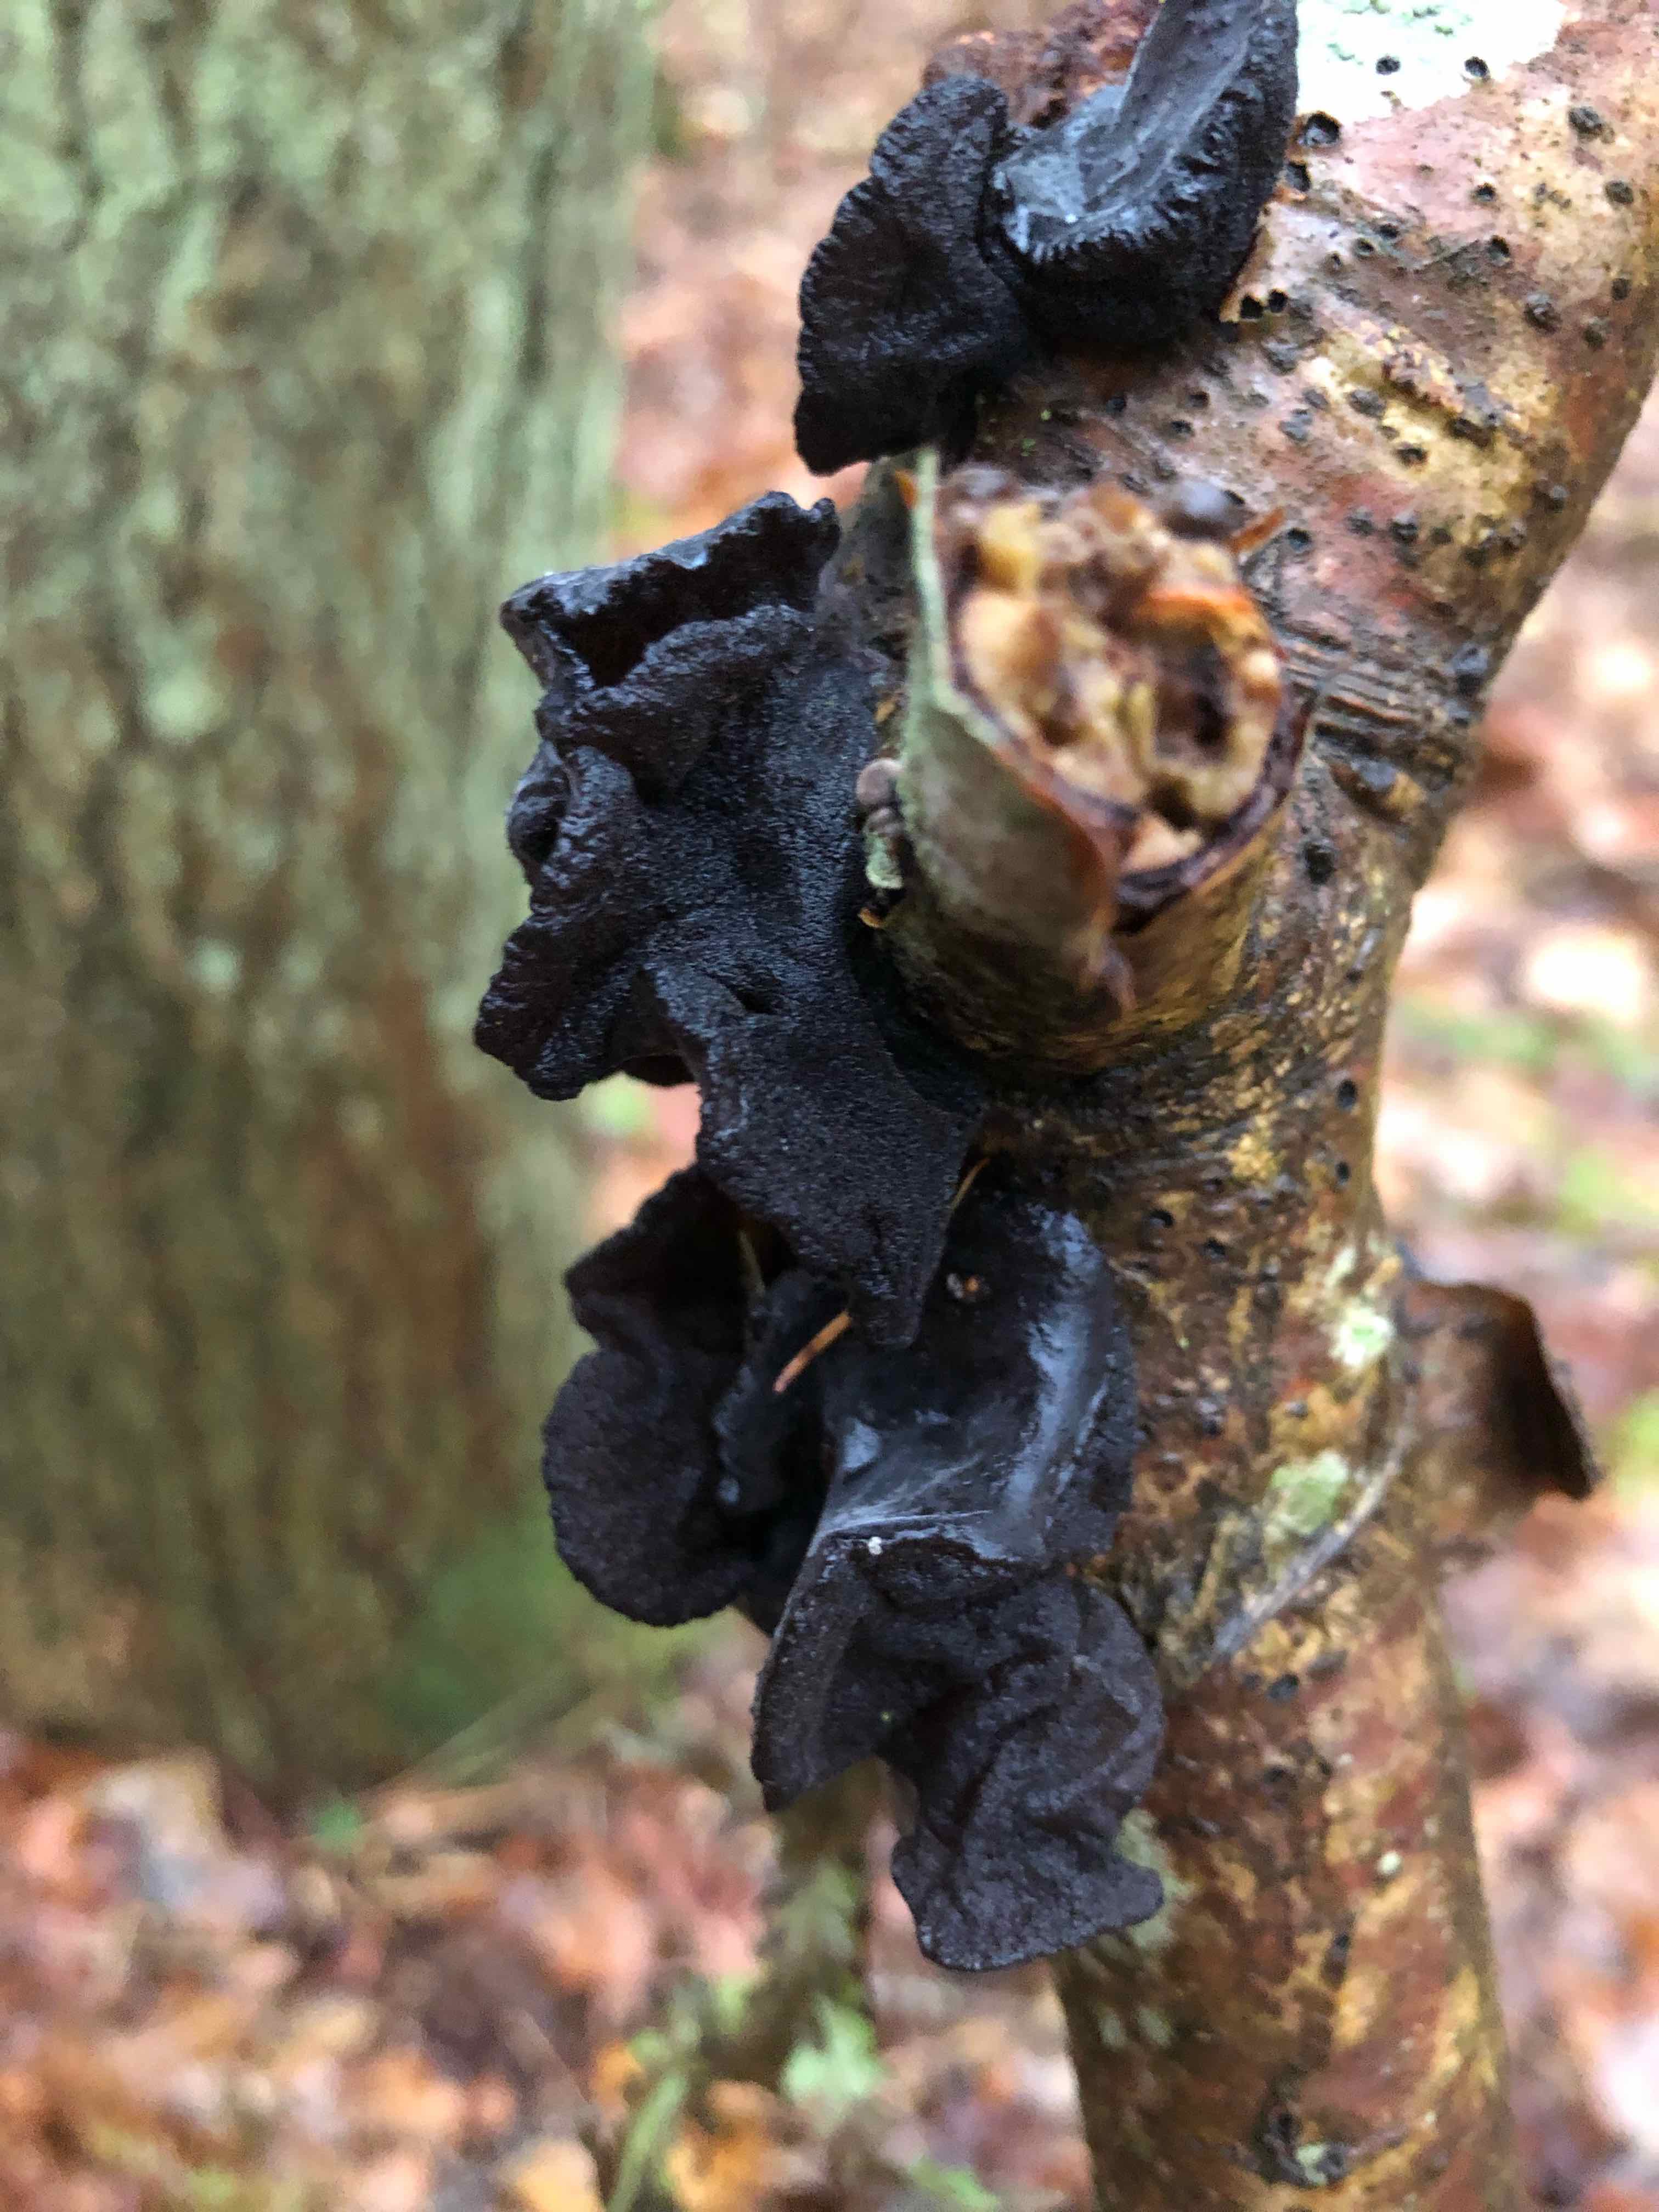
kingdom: Fungi
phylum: Basidiomycota
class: Agaricomycetes
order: Auriculariales
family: Auriculariaceae
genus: Exidia
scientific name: Exidia glandulosa
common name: ege-bævretop
